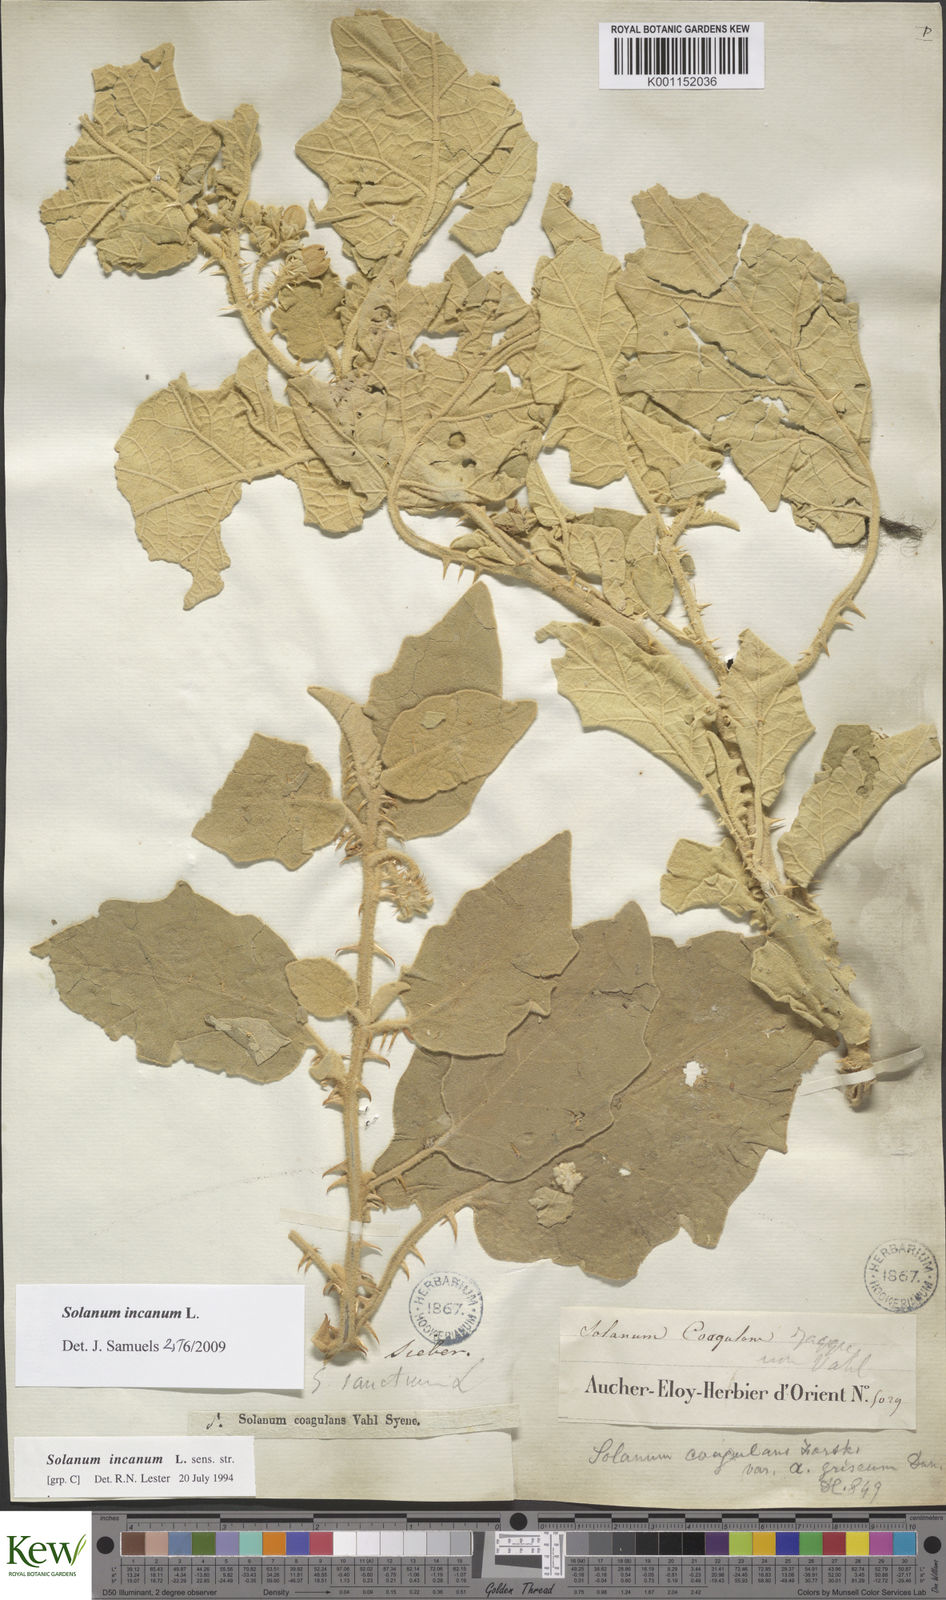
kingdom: Plantae
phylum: Tracheophyta
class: Magnoliopsida
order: Solanales
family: Solanaceae
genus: Solanum
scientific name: Solanum incanum
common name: Bitter apple
